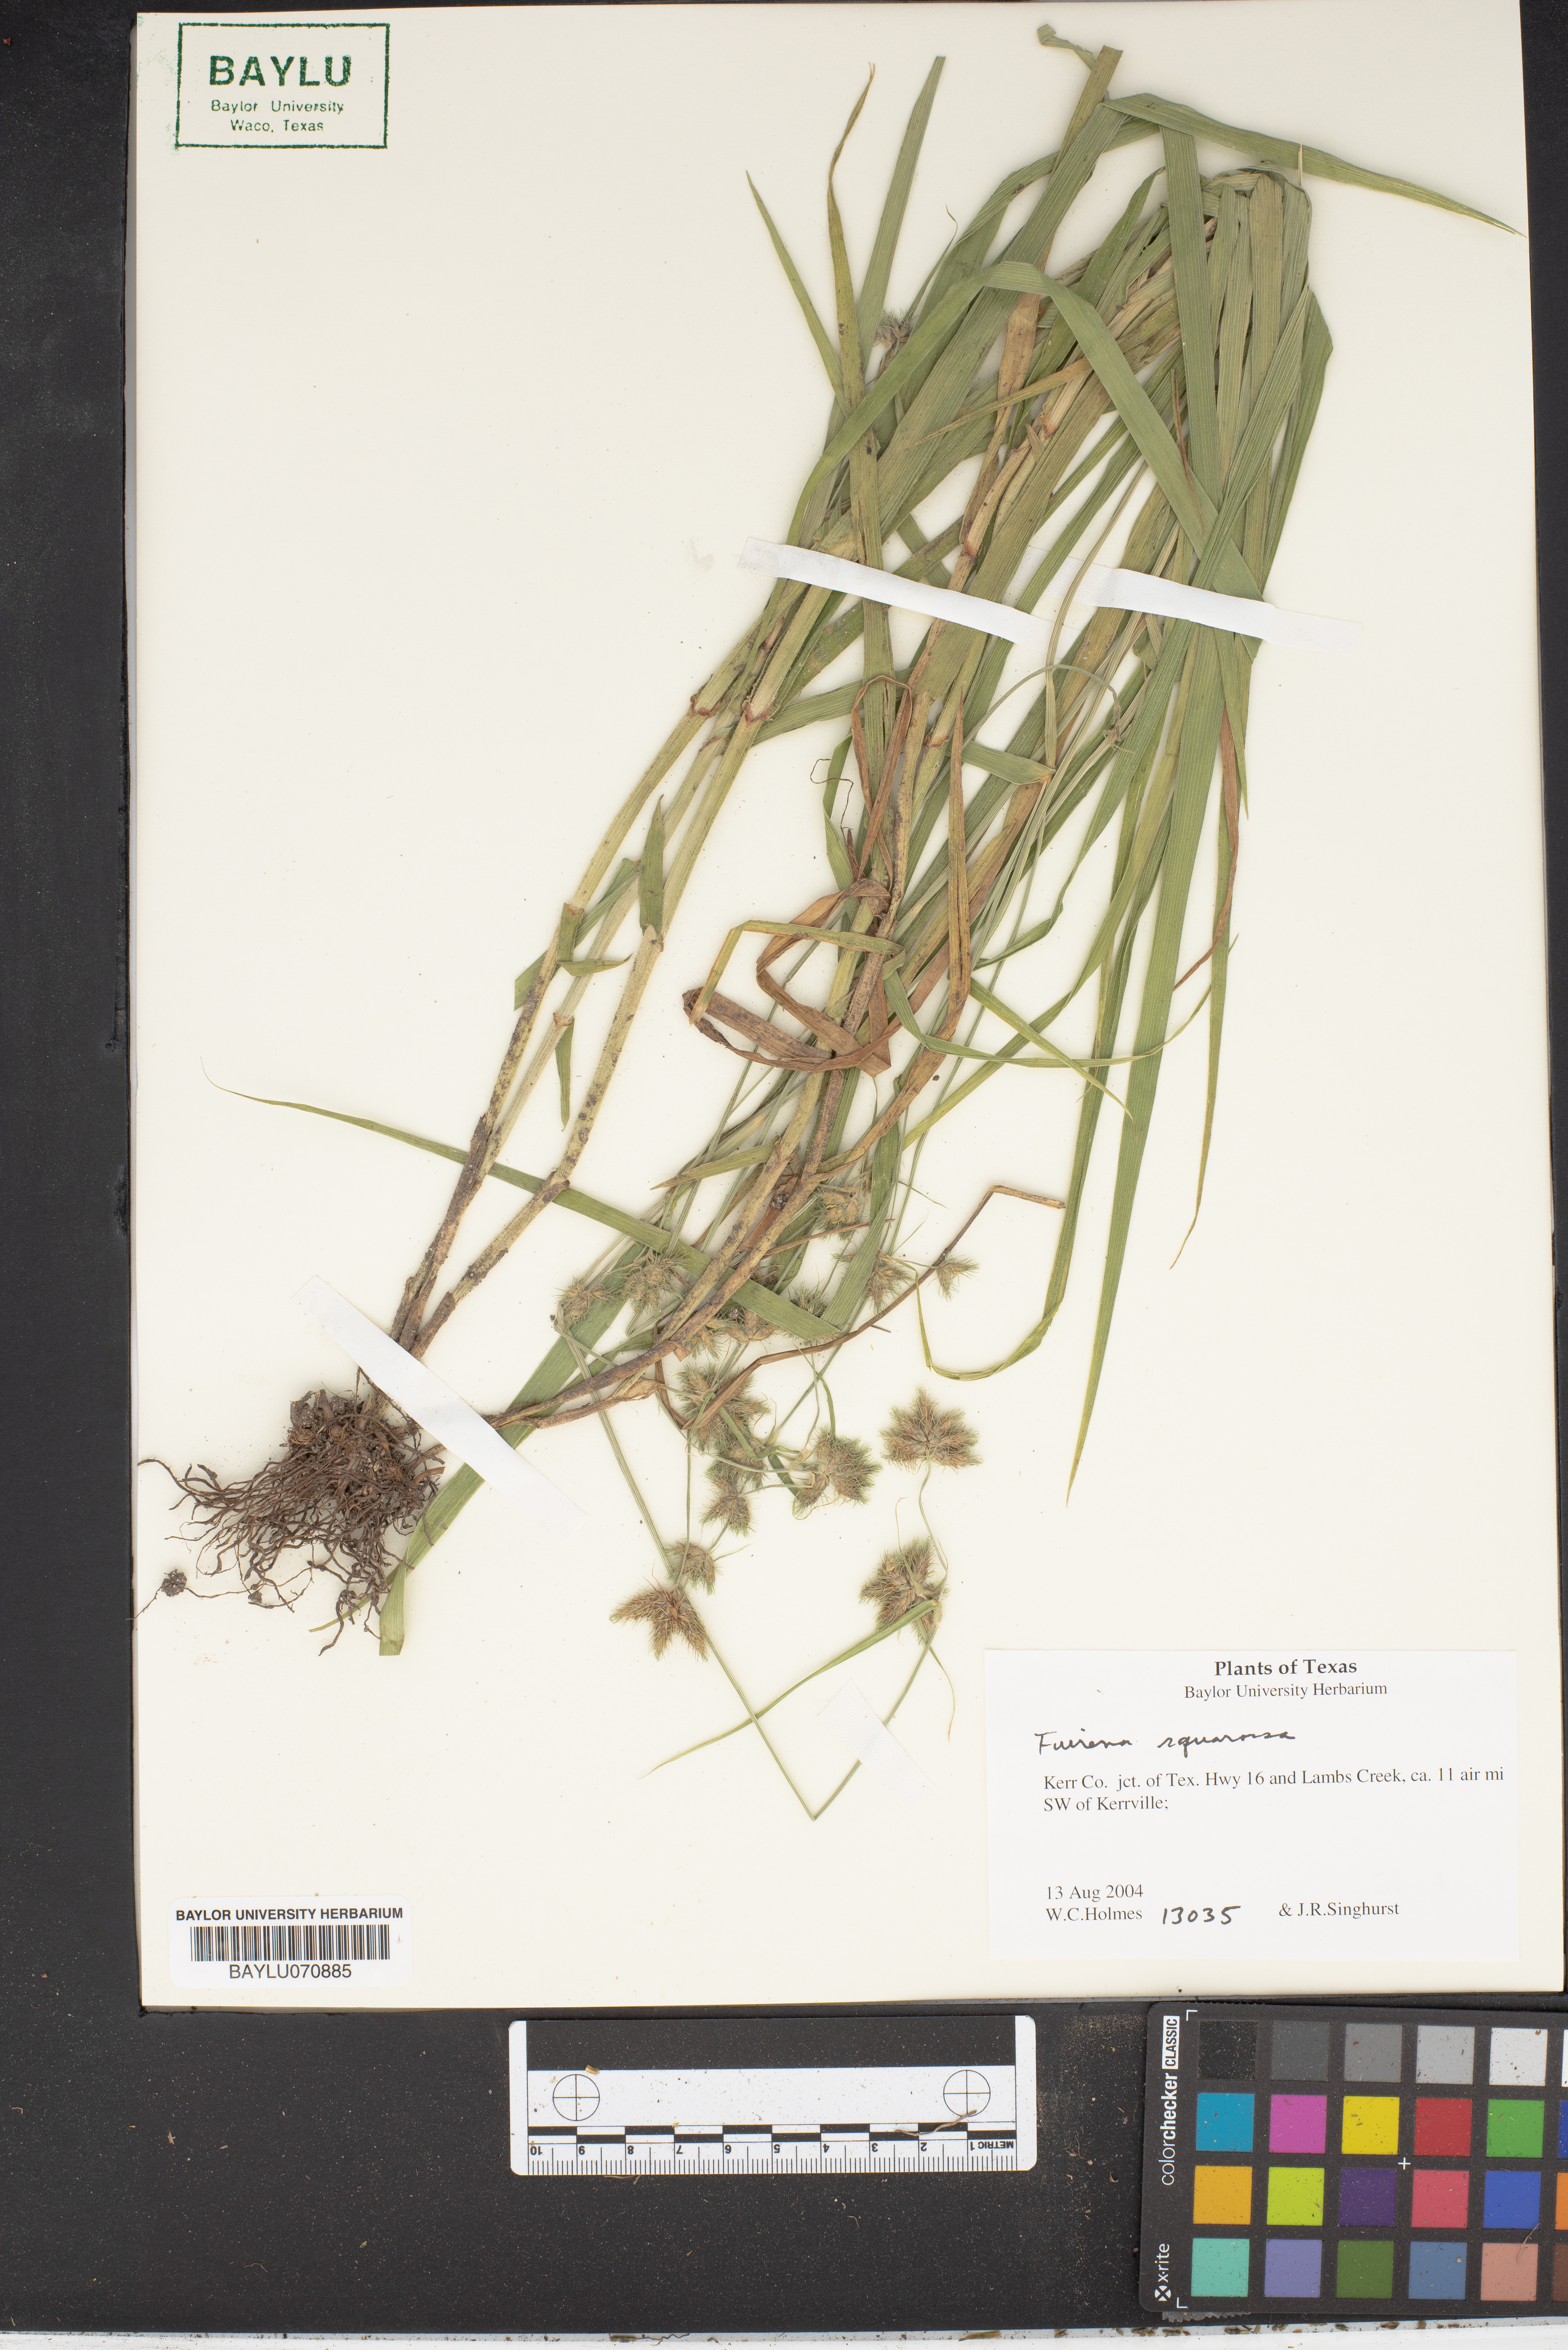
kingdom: Plantae
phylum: Tracheophyta
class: Liliopsida
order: Poales
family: Cyperaceae
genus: Fuirena
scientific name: Fuirena arenosa
